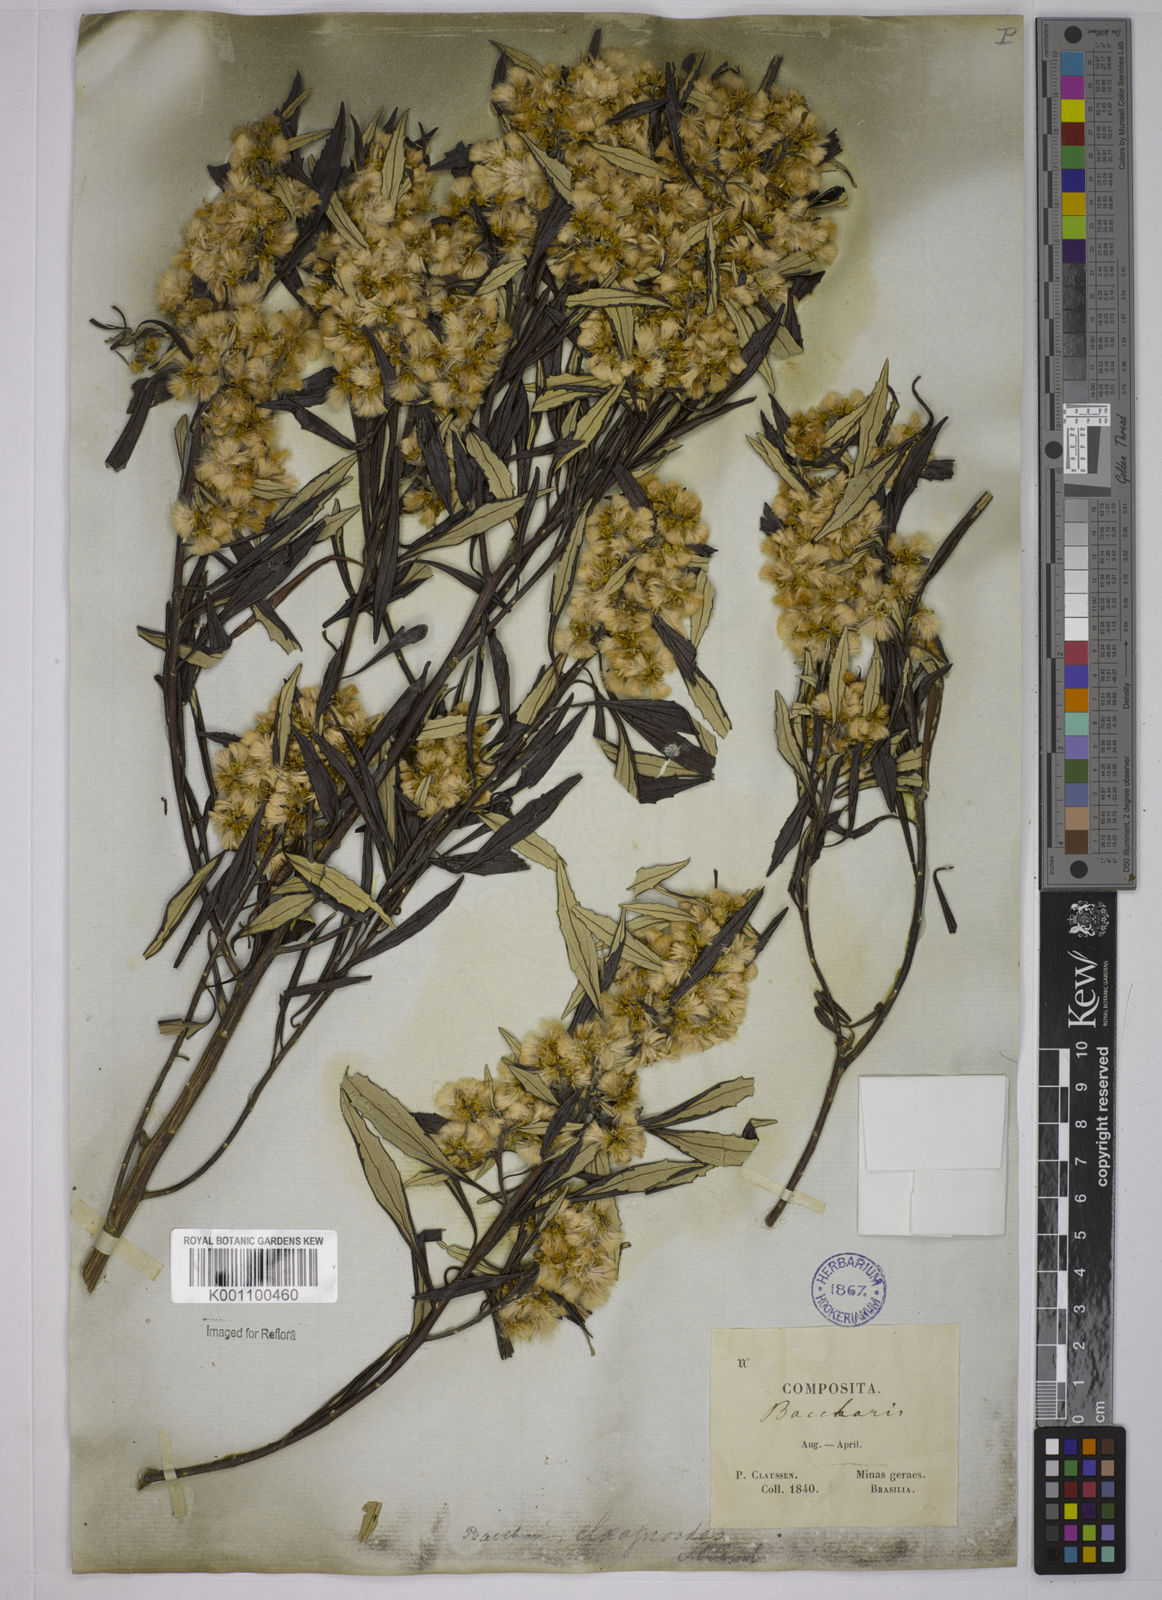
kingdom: Plantae
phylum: Tracheophyta
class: Magnoliopsida
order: Asterales
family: Asteraceae
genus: Baccharis
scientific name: Baccharis
